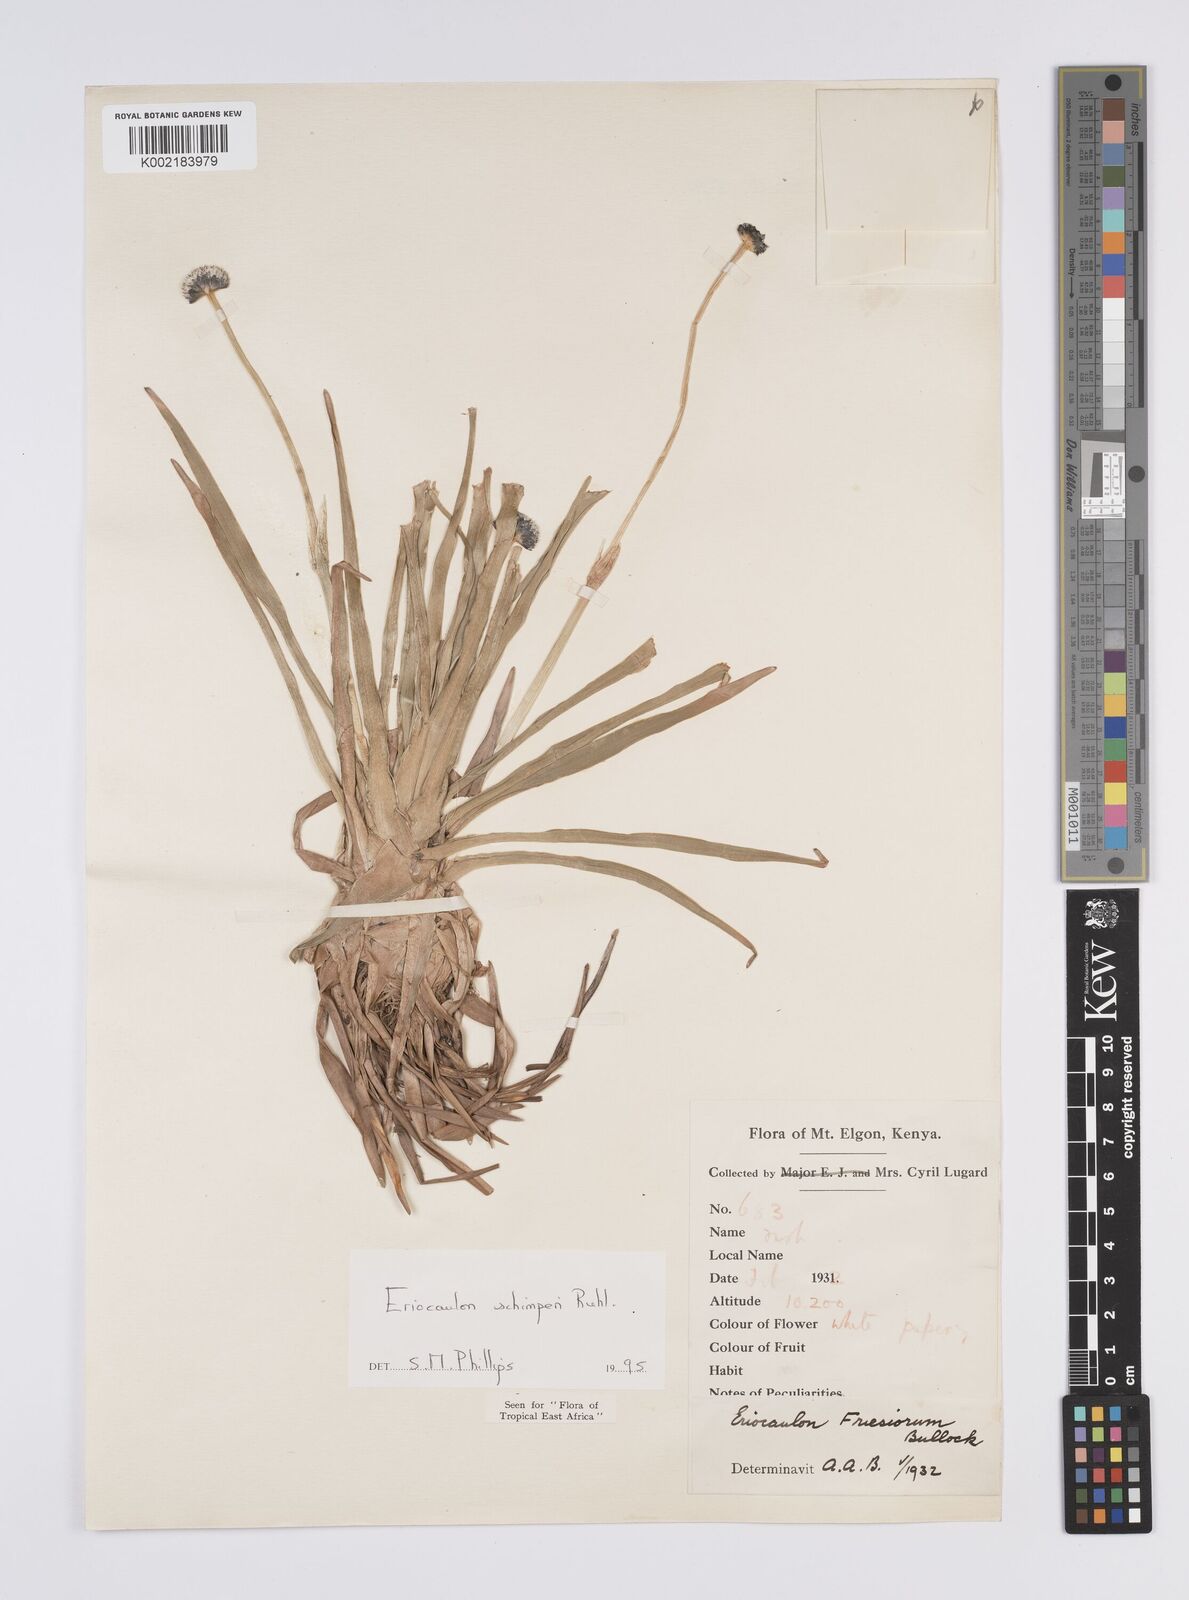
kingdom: Plantae
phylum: Tracheophyta
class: Liliopsida
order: Poales
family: Eriocaulaceae
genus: Eriocaulon
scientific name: Eriocaulon schimperi
